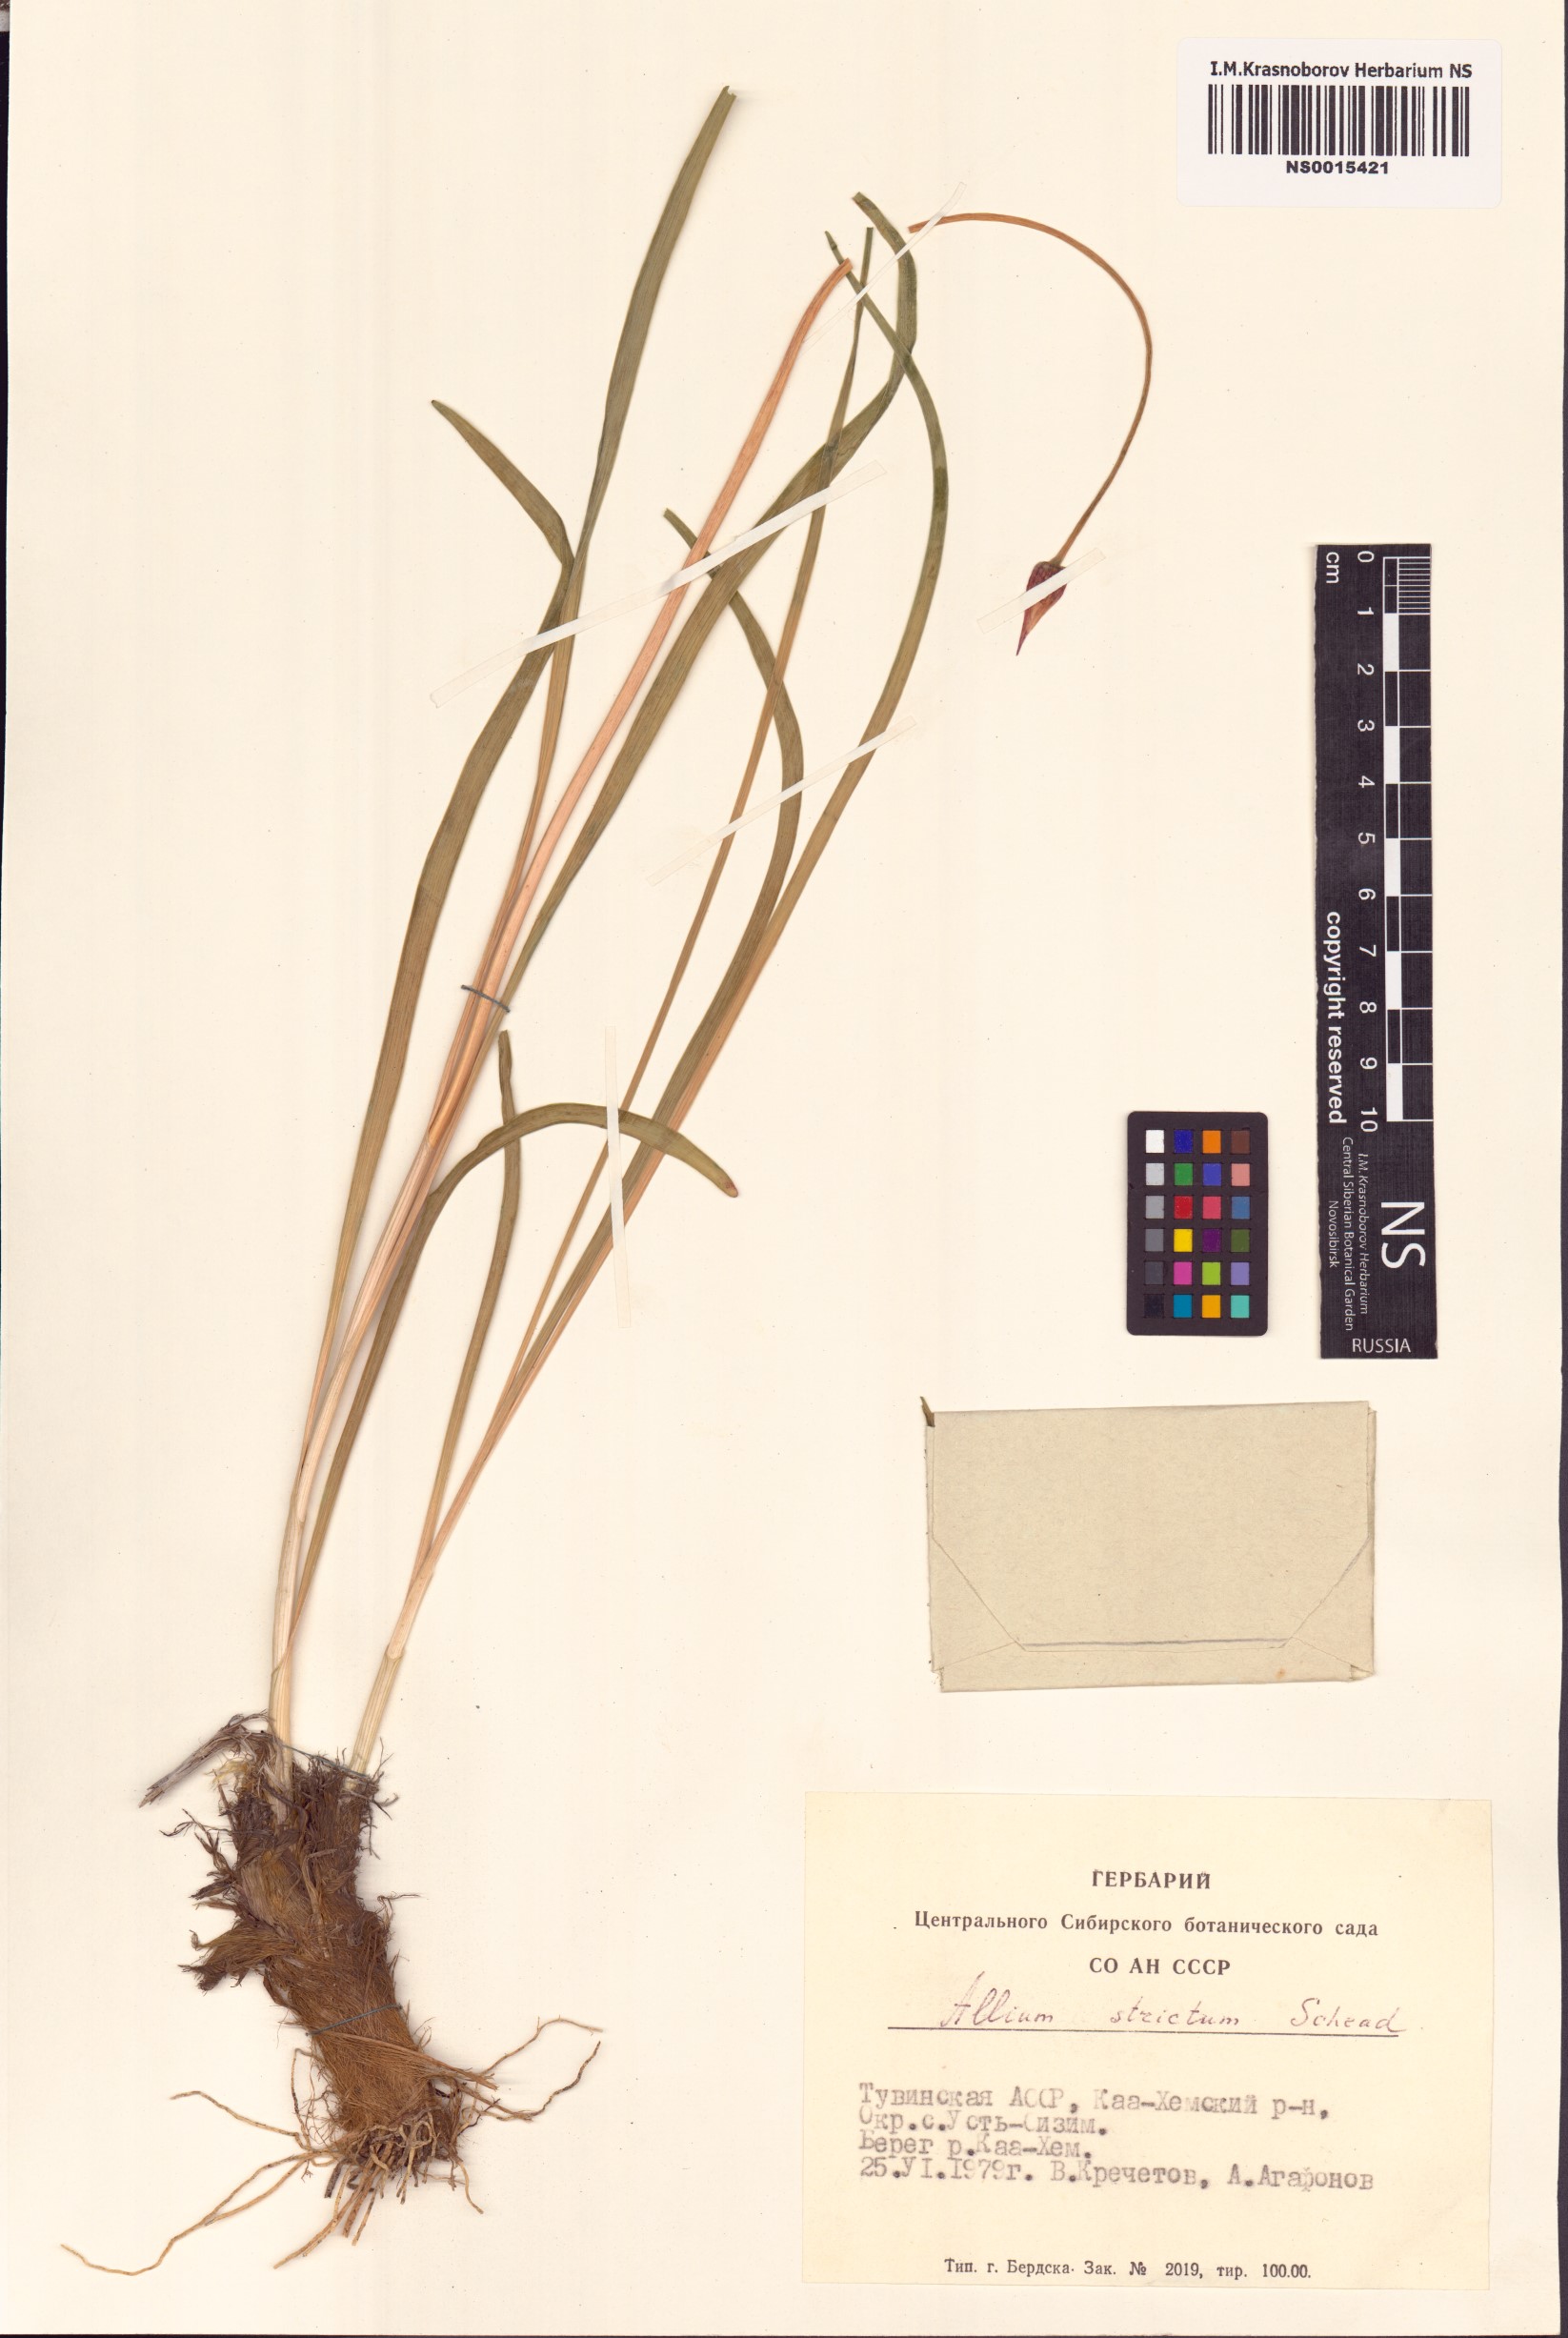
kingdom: Plantae
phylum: Tracheophyta
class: Liliopsida
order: Asparagales
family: Amaryllidaceae
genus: Allium
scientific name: Allium strictum
